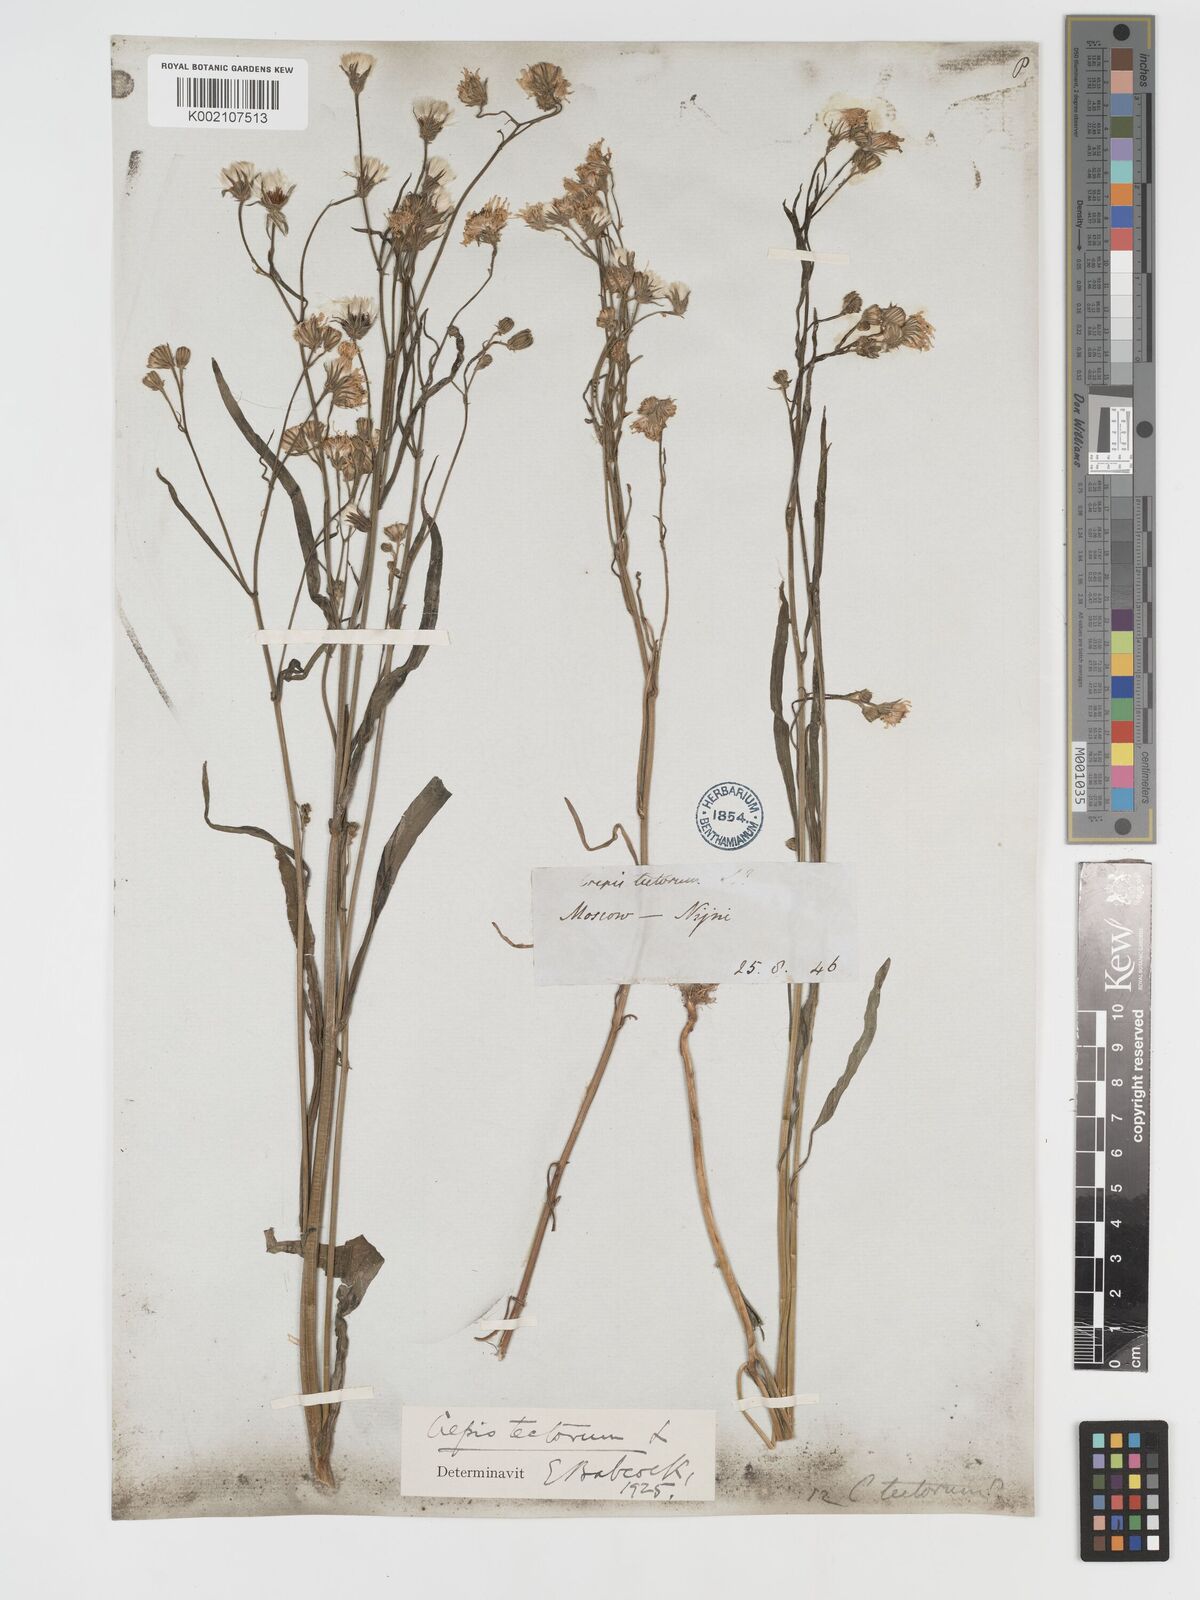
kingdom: Plantae
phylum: Tracheophyta
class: Magnoliopsida
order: Asterales
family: Asteraceae
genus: Crepis
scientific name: Crepis tectorum
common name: Narrow-leaved hawk's-beard
